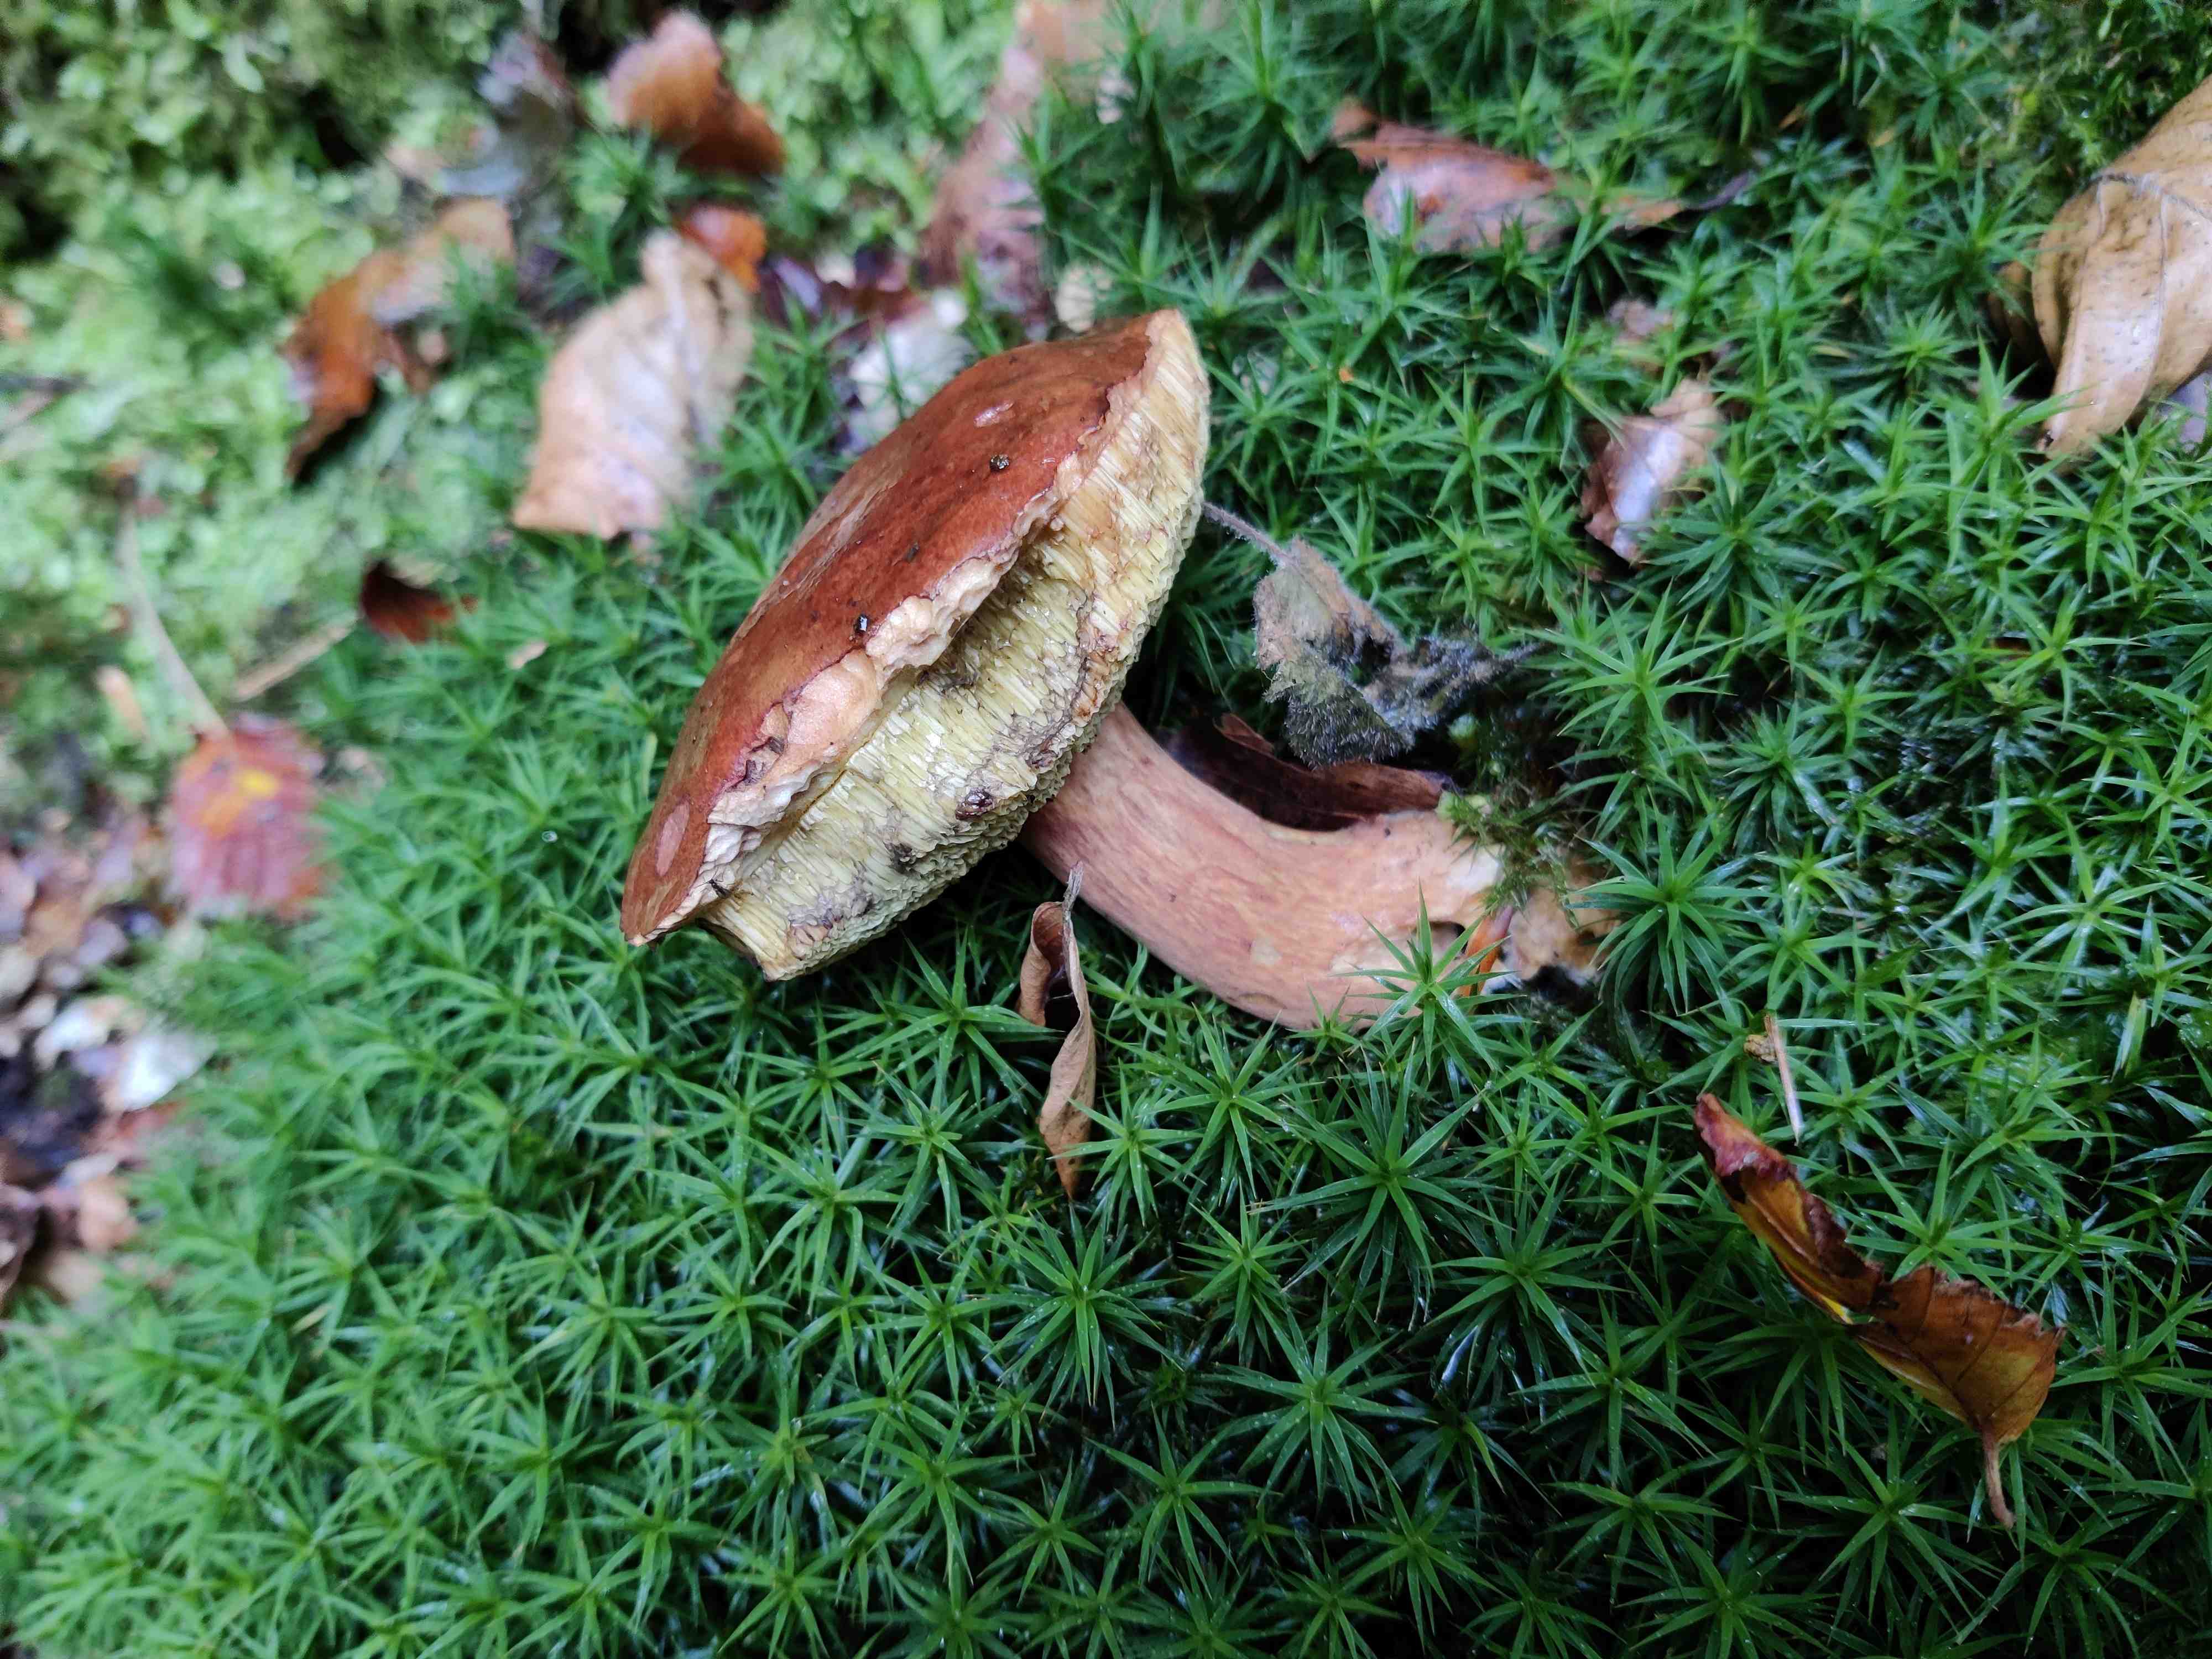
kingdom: Fungi
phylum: Basidiomycota
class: Agaricomycetes
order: Boletales
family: Boletaceae
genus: Imleria
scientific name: Imleria badia
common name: brunstokket rørhat
